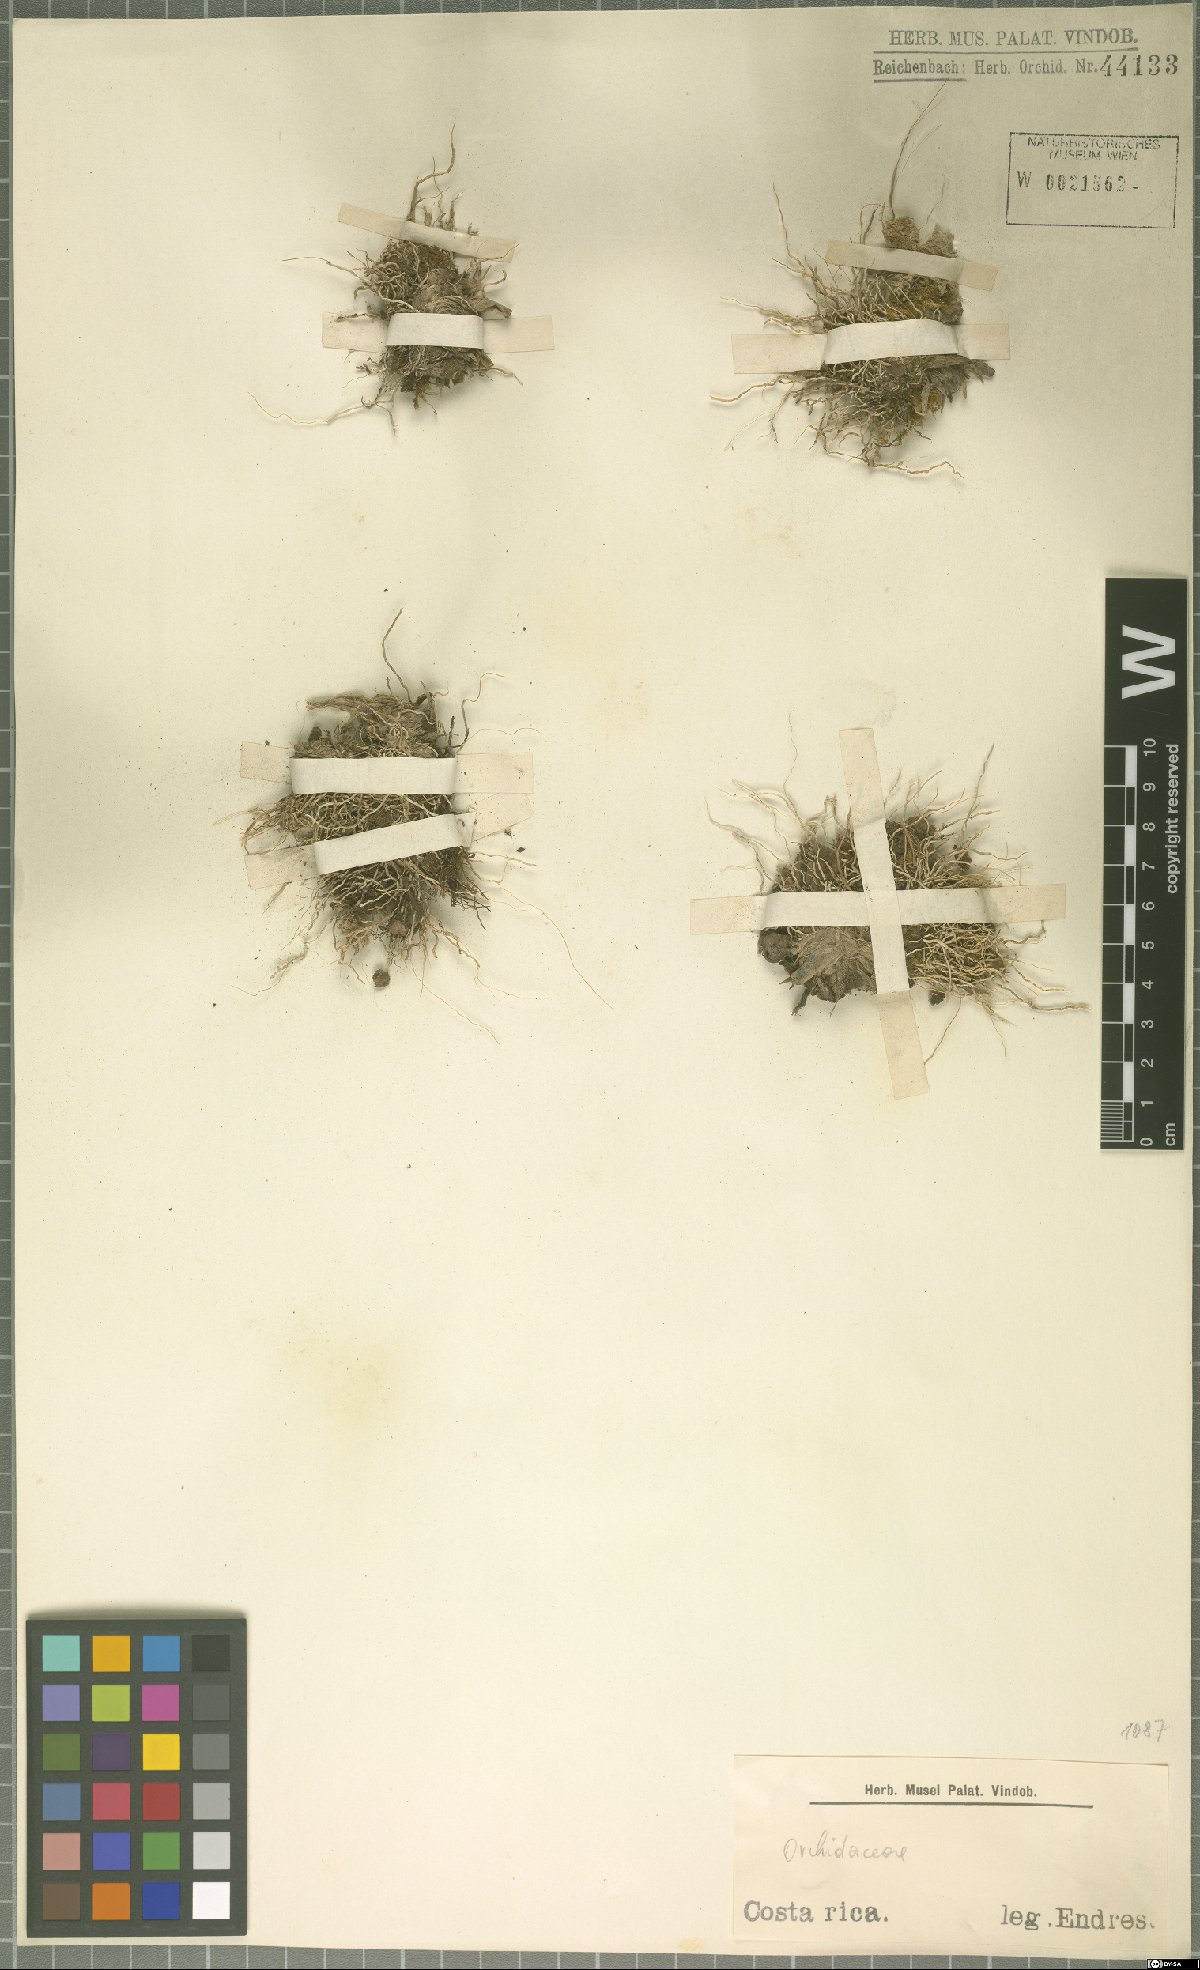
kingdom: Plantae
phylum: Tracheophyta
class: Liliopsida
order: Asparagales
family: Orchidaceae
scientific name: Orchidaceae
